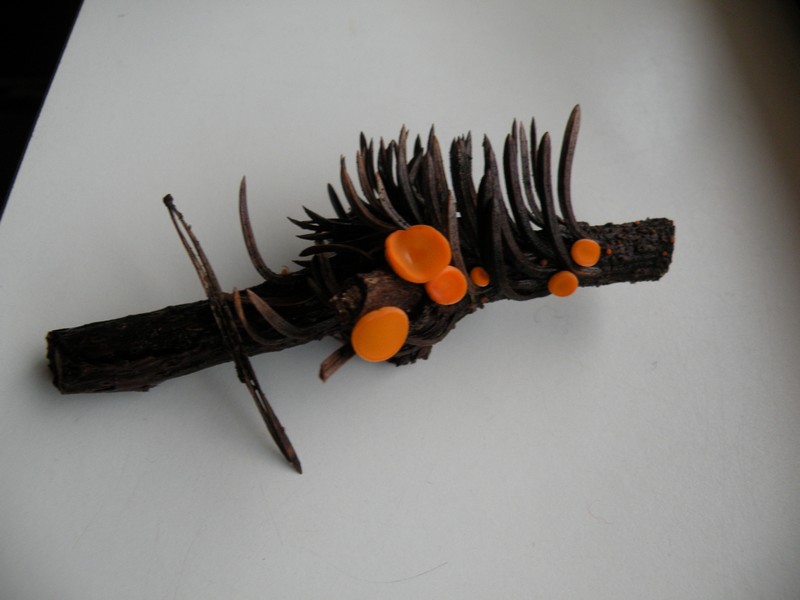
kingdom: Fungi
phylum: Ascomycota
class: Pezizomycetes
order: Pezizales
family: Sarcoscyphaceae
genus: Pithya
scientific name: Pithya vulgaris
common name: stor dukatbæger
